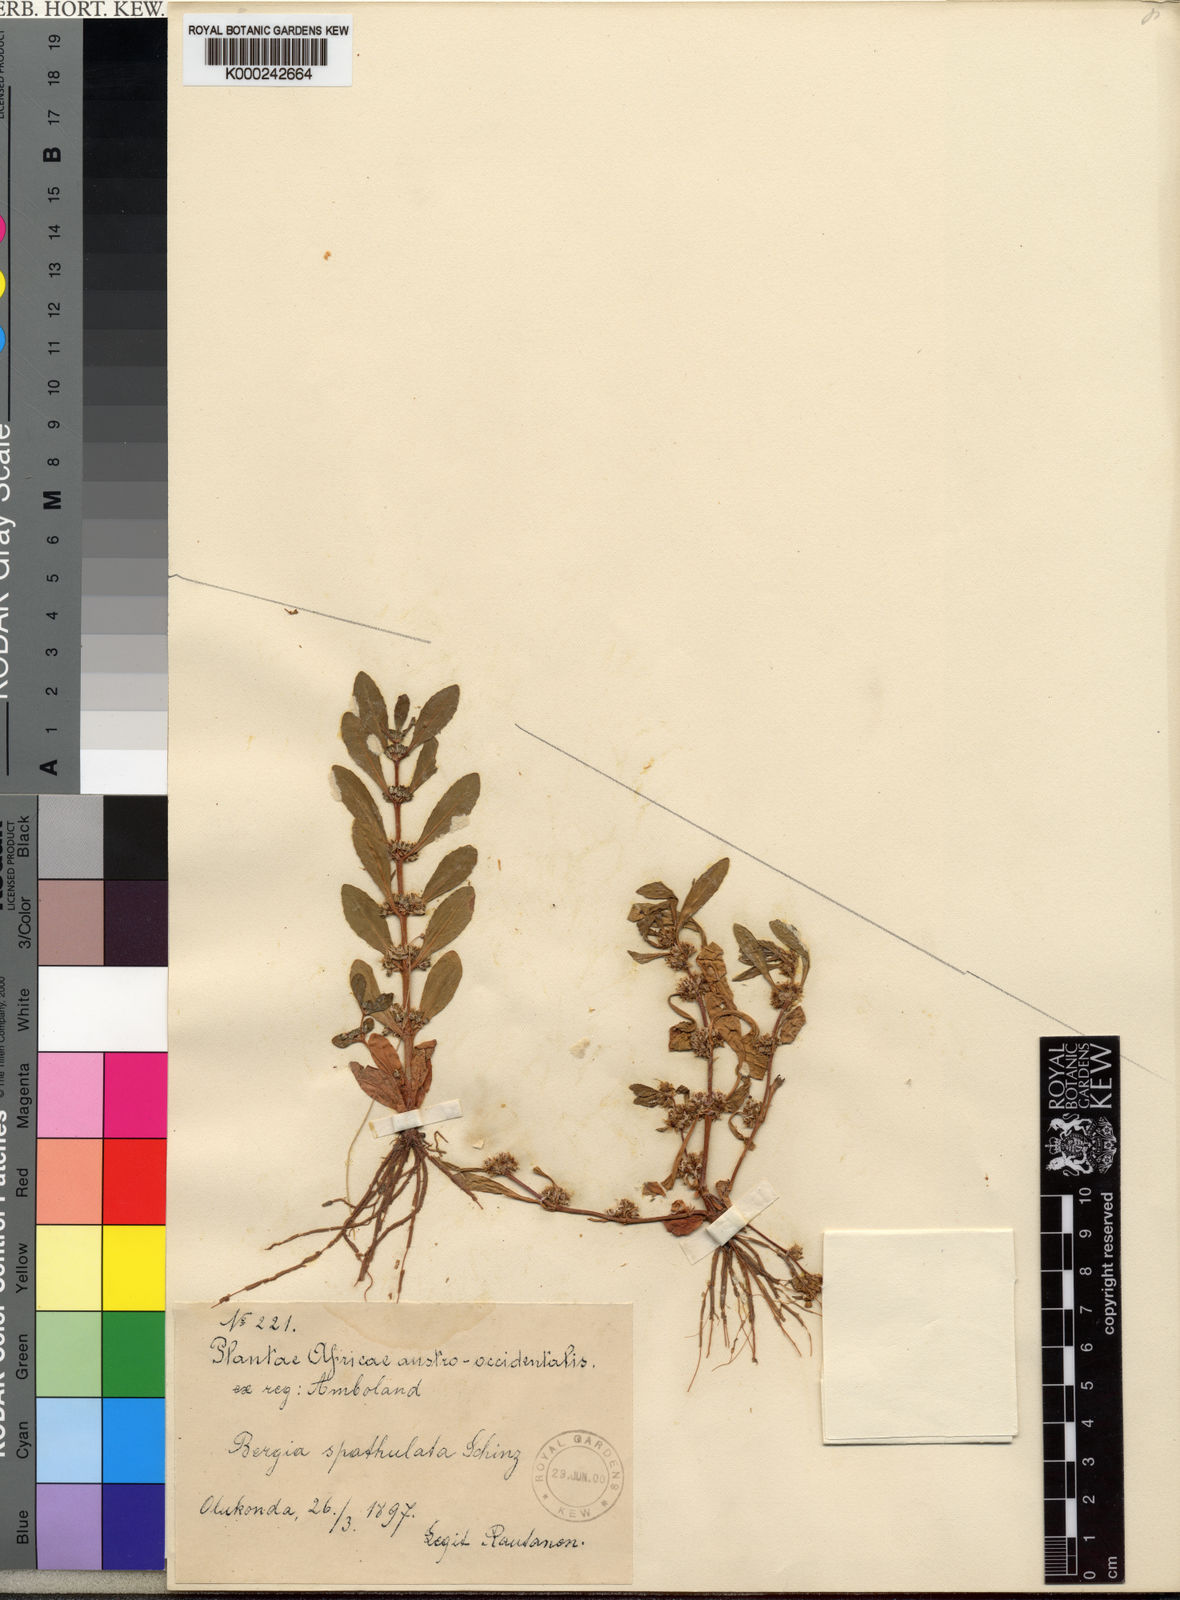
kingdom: Plantae
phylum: Tracheophyta
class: Magnoliopsida
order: Malpighiales
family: Elatinaceae
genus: Bergia
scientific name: Bergia spathulata
